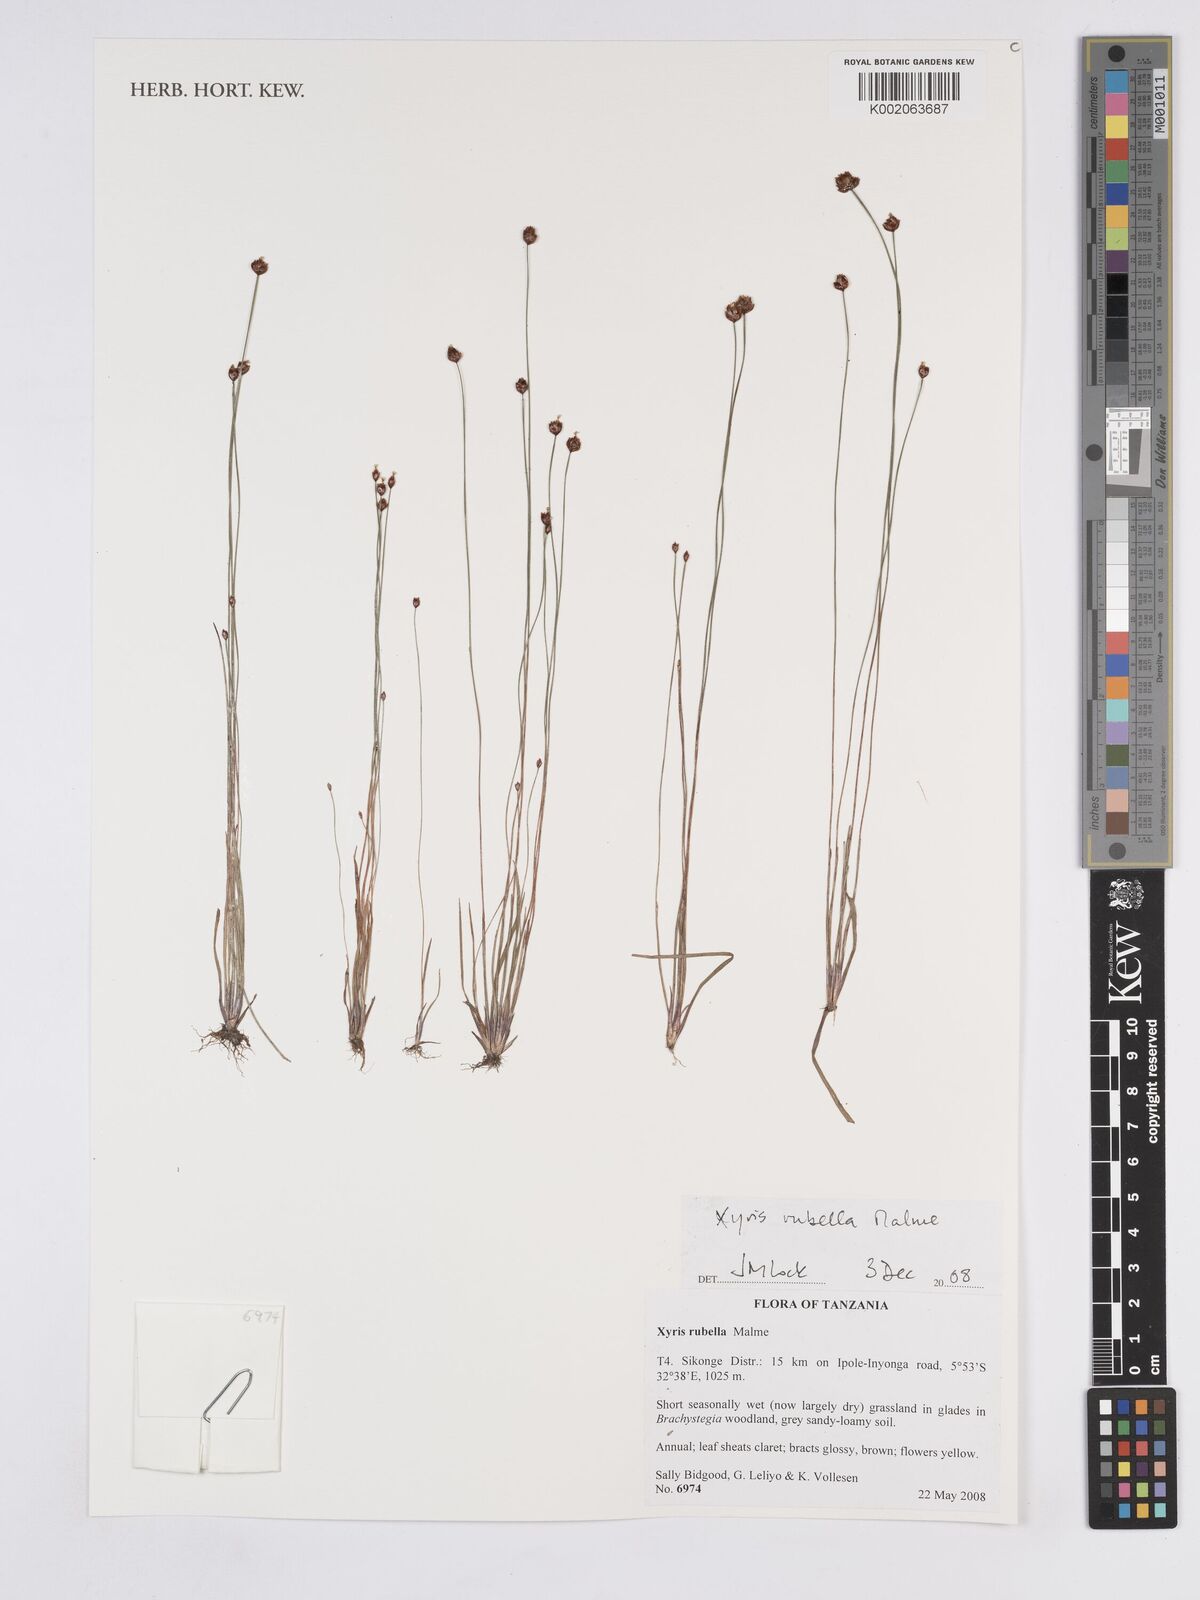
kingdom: Plantae
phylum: Tracheophyta
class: Liliopsida
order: Poales
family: Xyridaceae
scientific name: Xyridaceae
